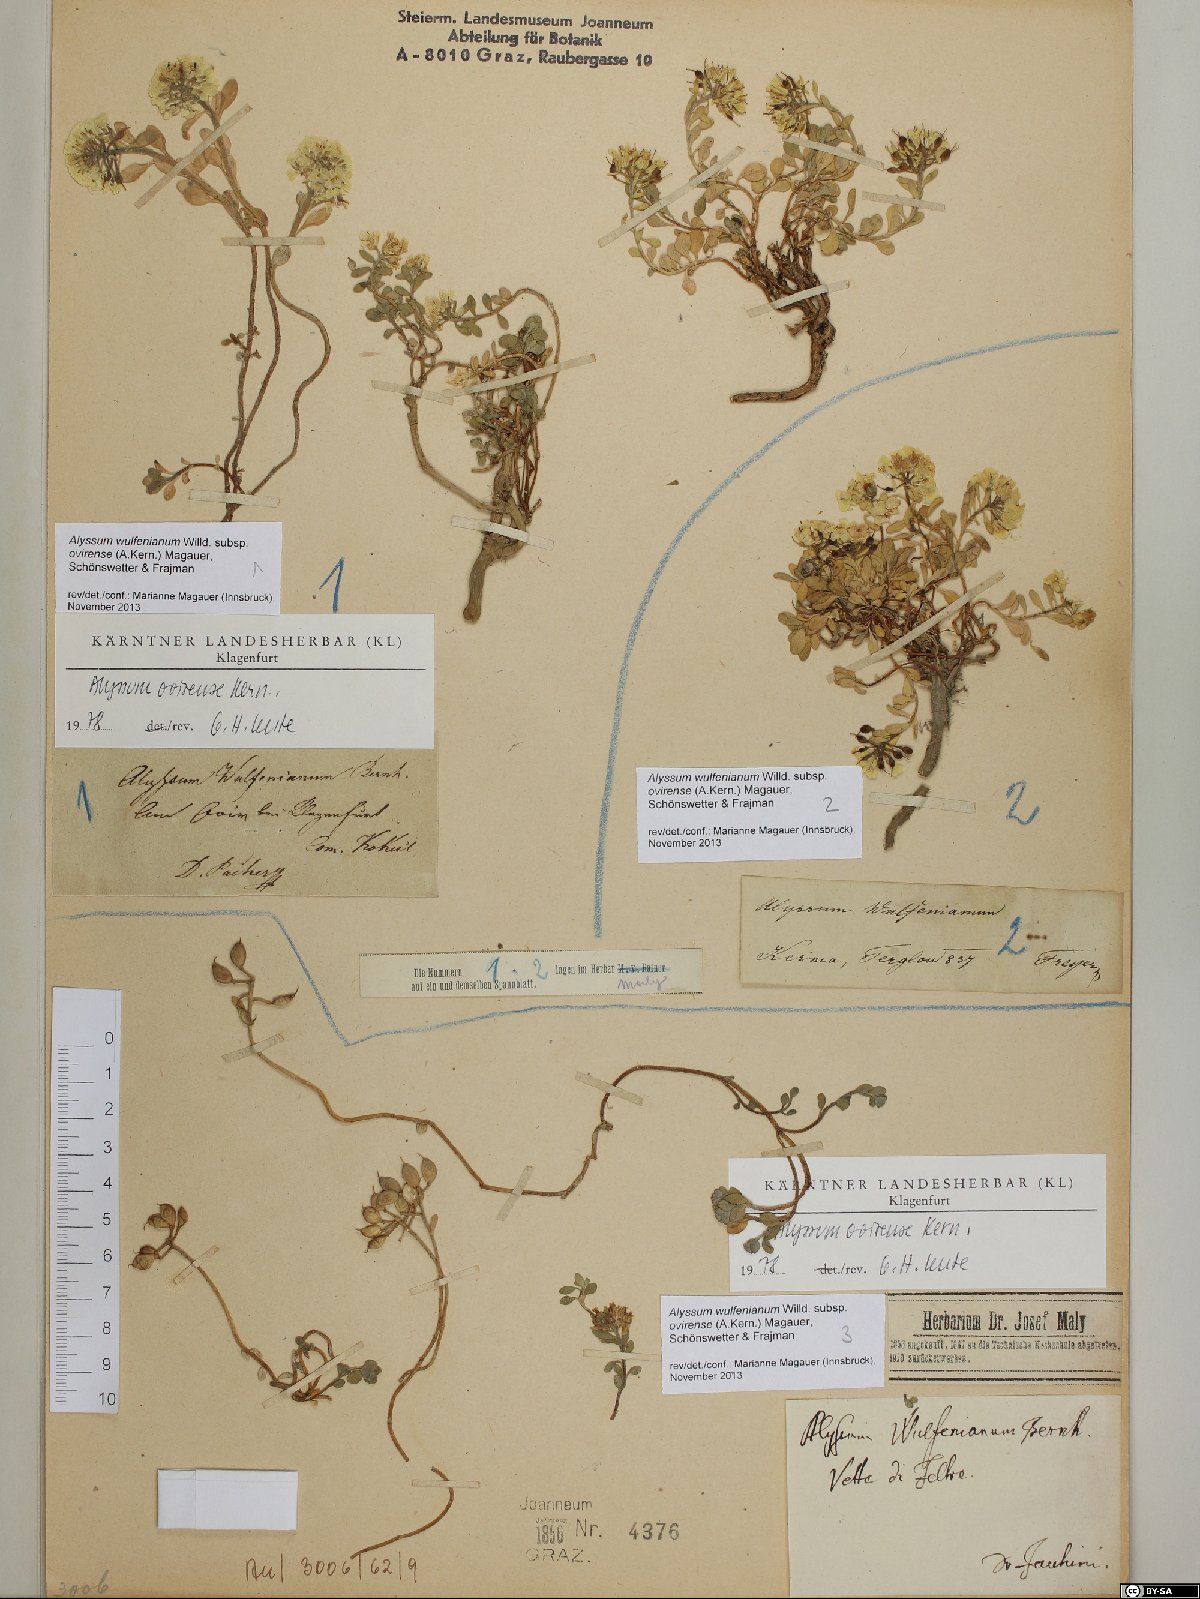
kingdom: Plantae
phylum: Tracheophyta
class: Magnoliopsida
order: Brassicales
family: Brassicaceae
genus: Alyssum
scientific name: Alyssum wulfenianum
